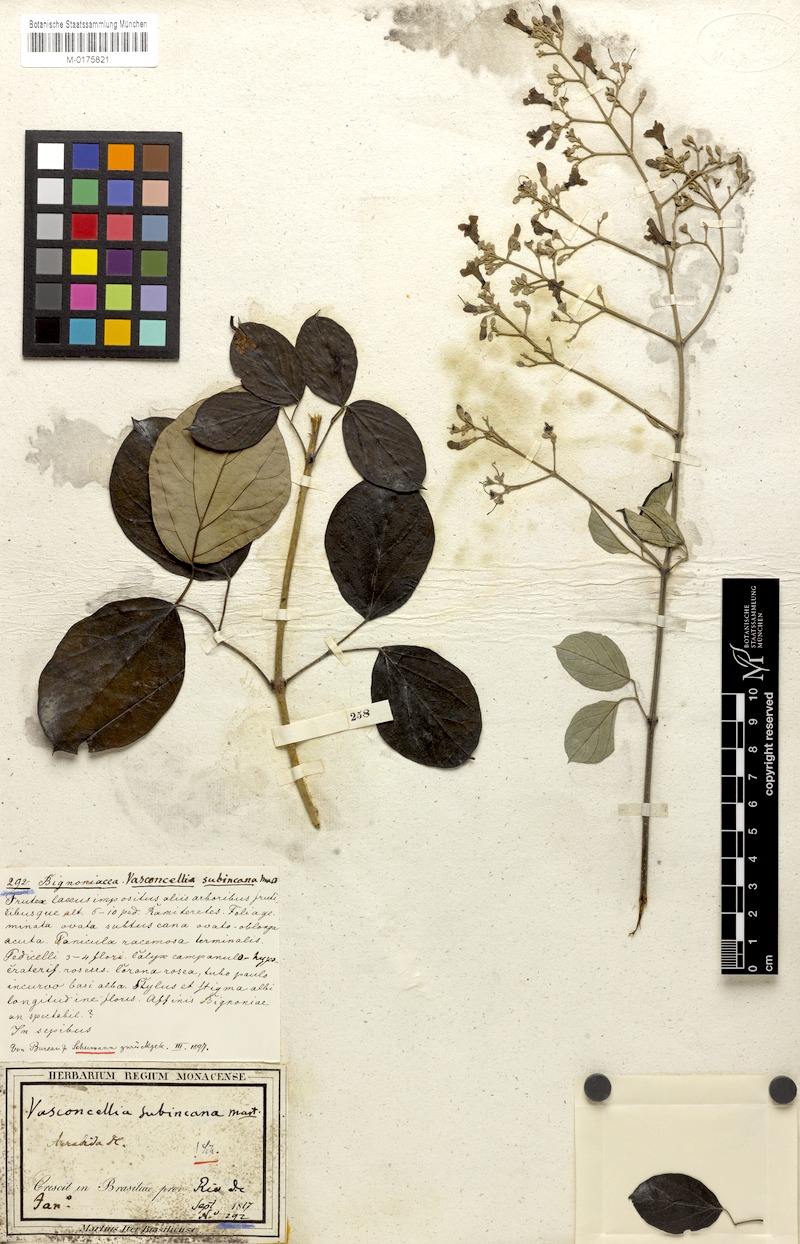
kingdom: Plantae
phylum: Tracheophyta
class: Magnoliopsida
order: Lamiales
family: Bignoniaceae
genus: Fridericia
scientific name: Fridericia subincana
